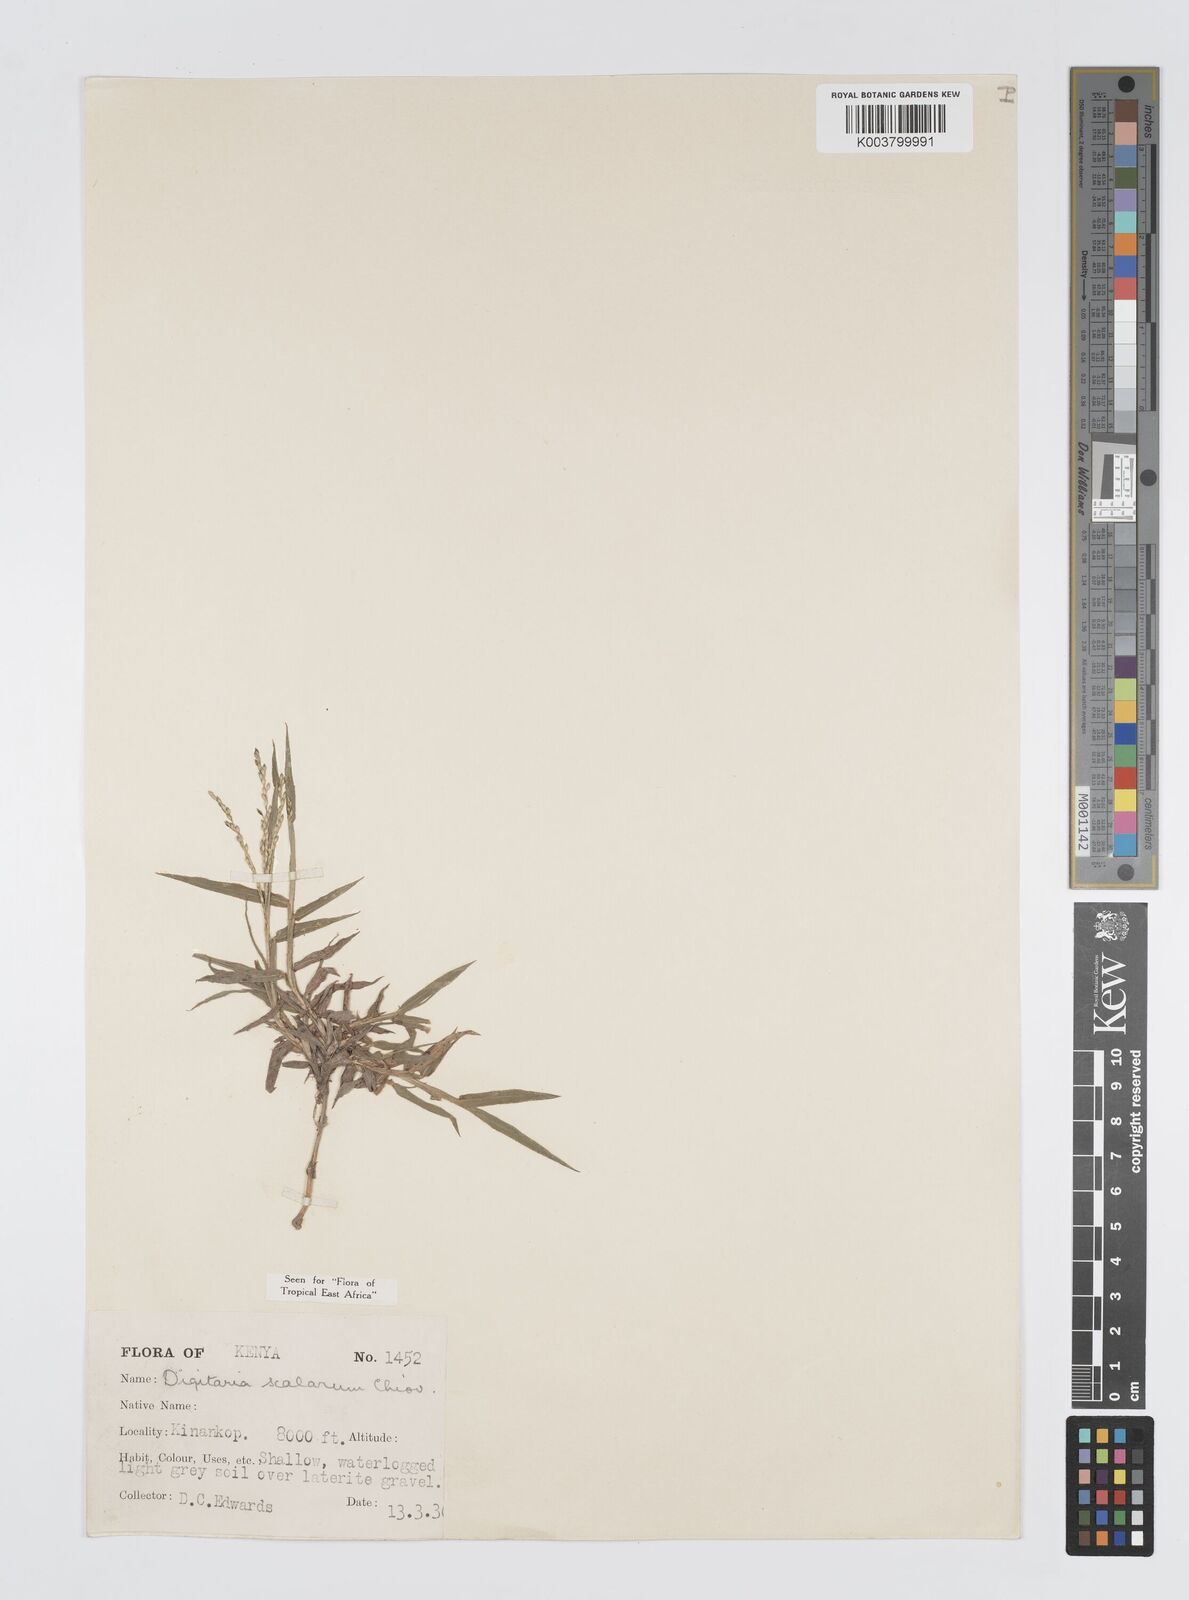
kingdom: Plantae
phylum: Tracheophyta
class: Liliopsida
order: Poales
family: Poaceae
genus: Digitaria
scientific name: Digitaria abyssinica
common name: African couchgrass
